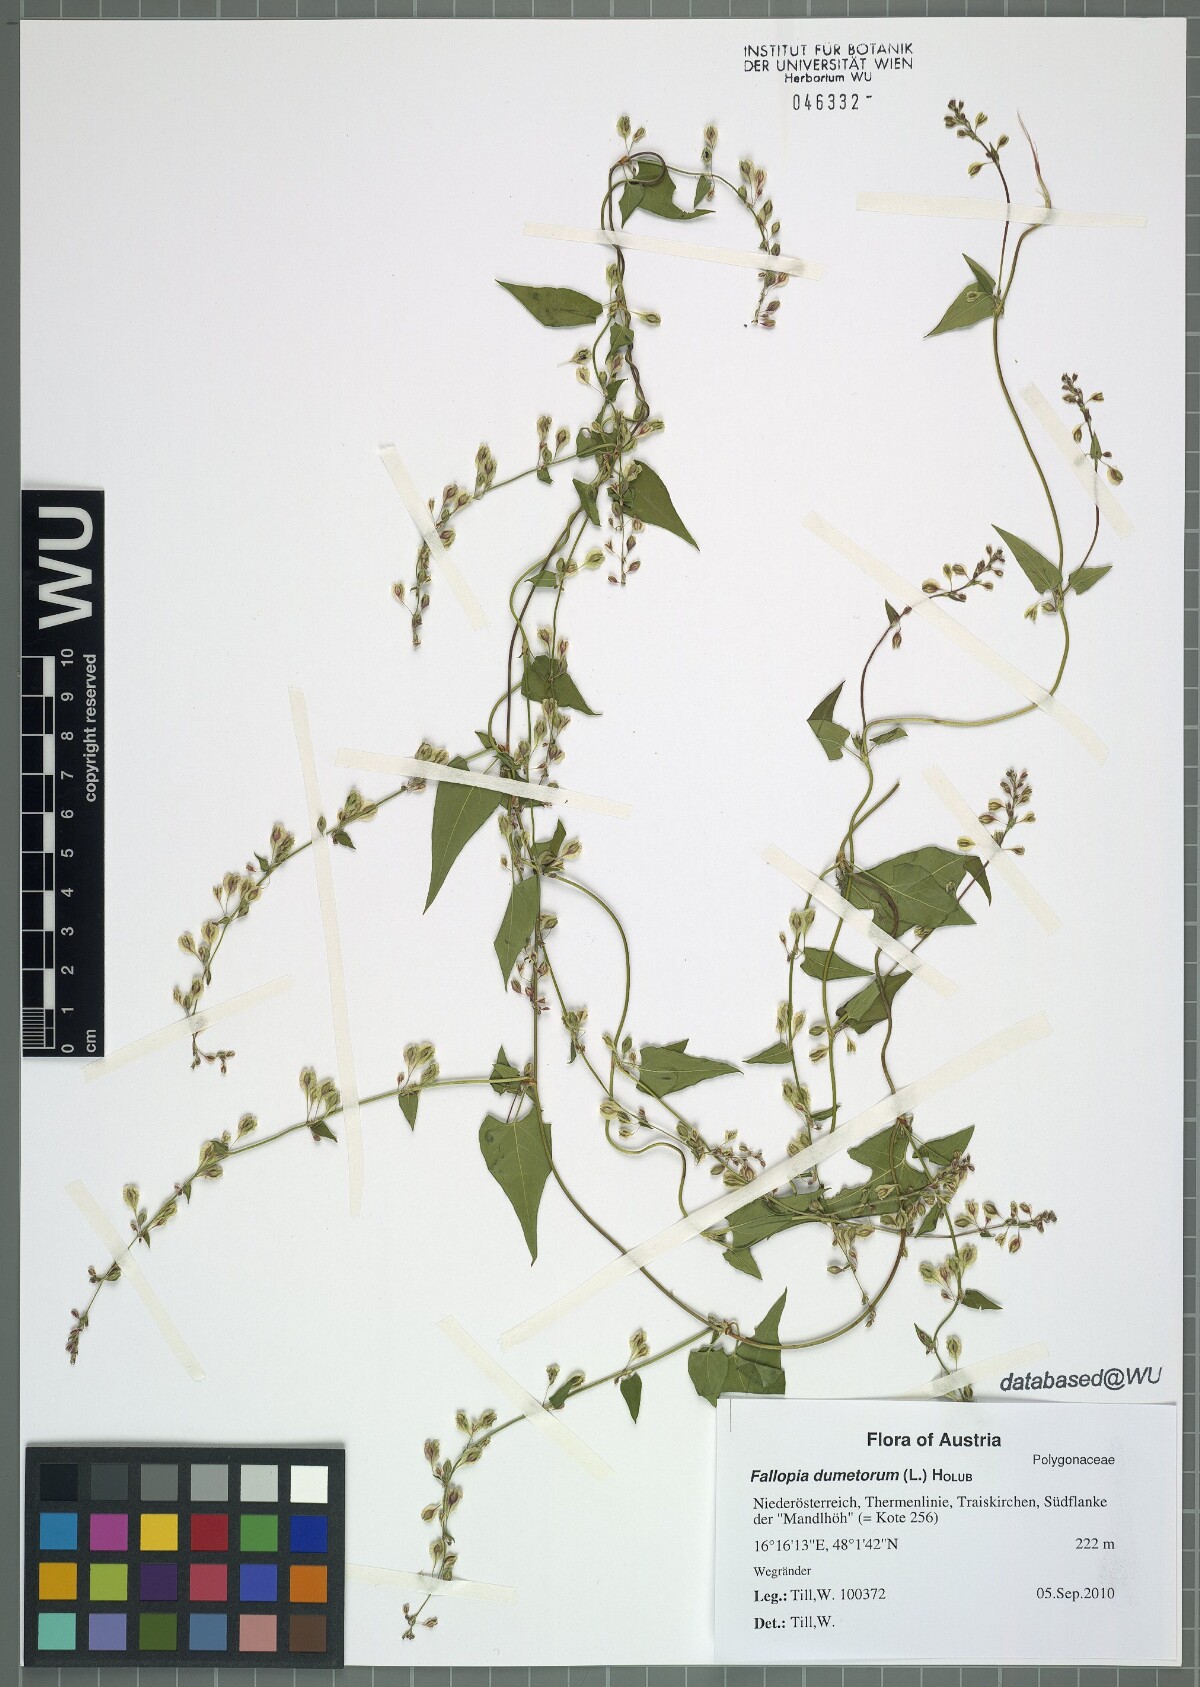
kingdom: Plantae
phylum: Tracheophyta
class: Magnoliopsida
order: Caryophyllales
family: Polygonaceae
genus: Fallopia
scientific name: Fallopia dumetorum
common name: Copse-bindweed
